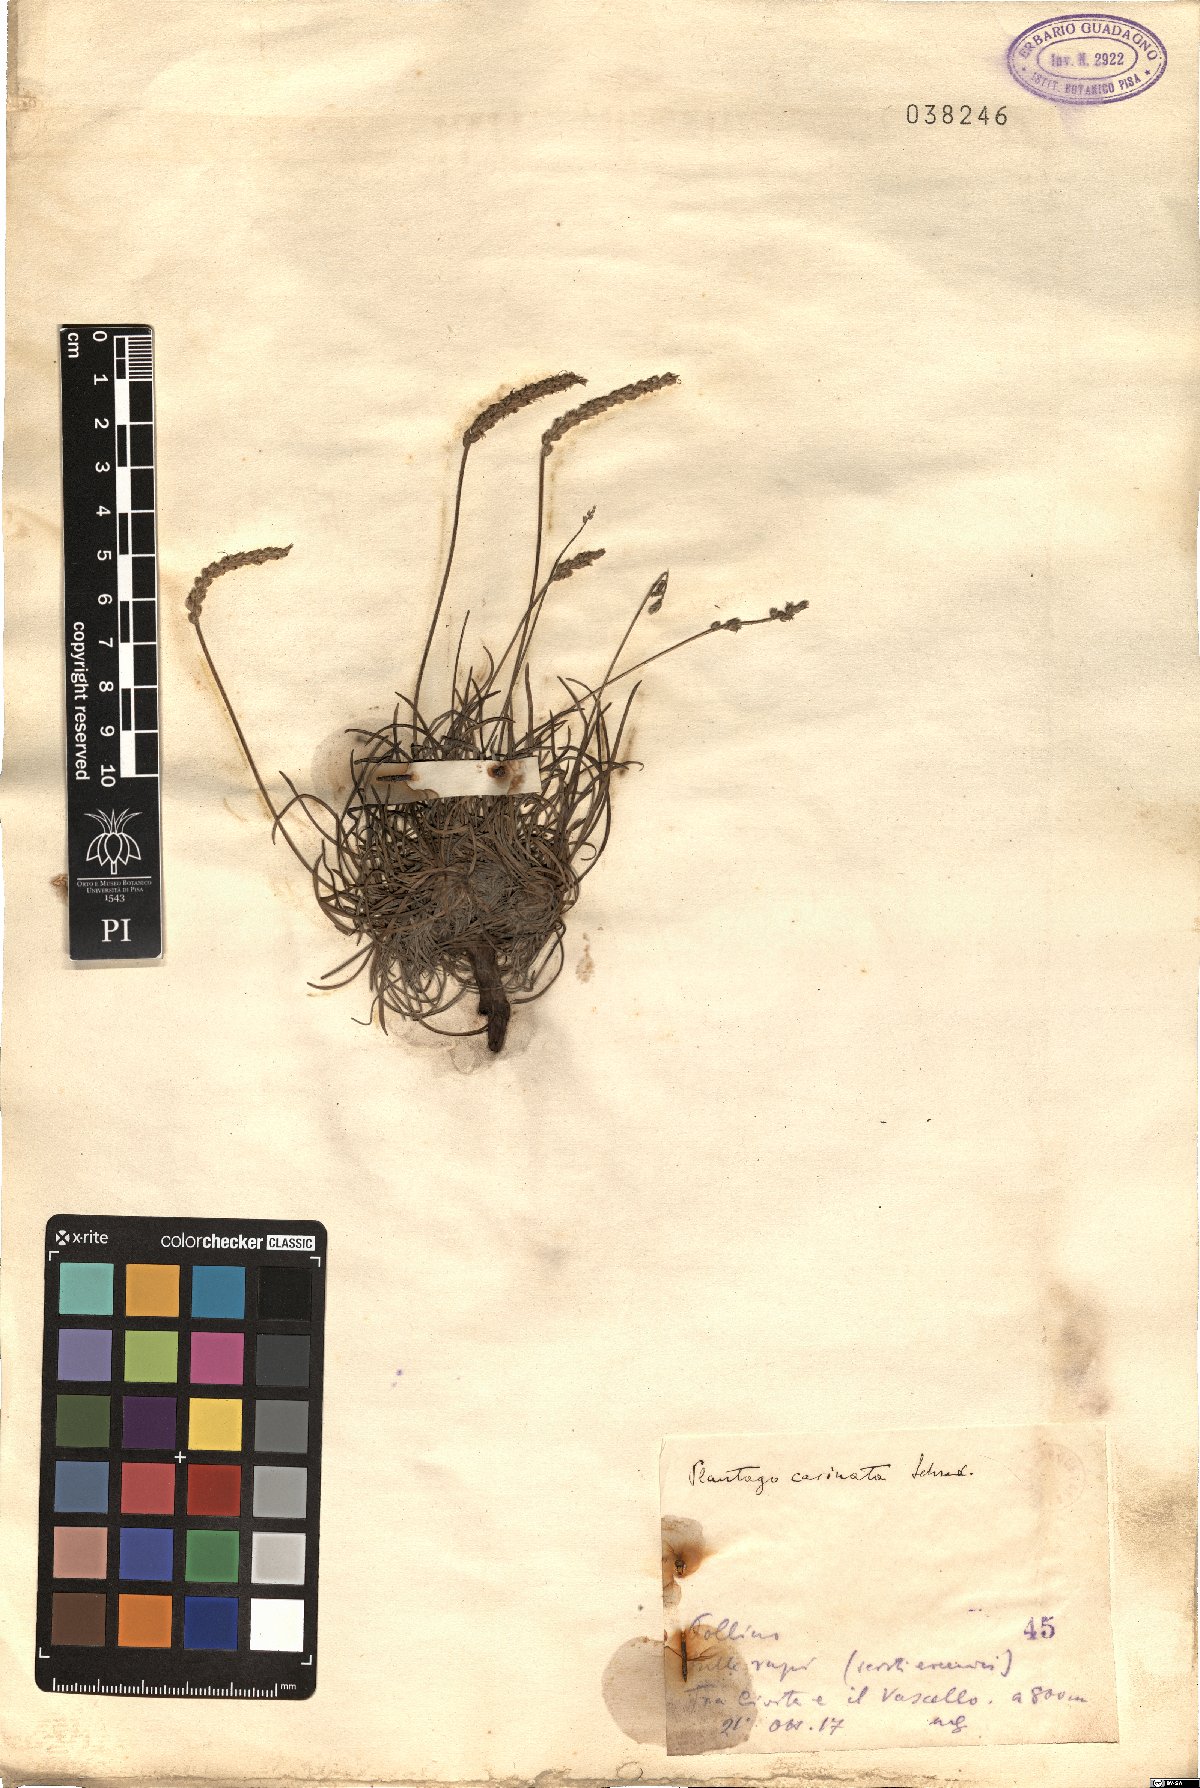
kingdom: Plantae
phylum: Tracheophyta
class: Magnoliopsida
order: Lamiales
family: Plantaginaceae
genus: Plantago
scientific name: Plantago subulata
